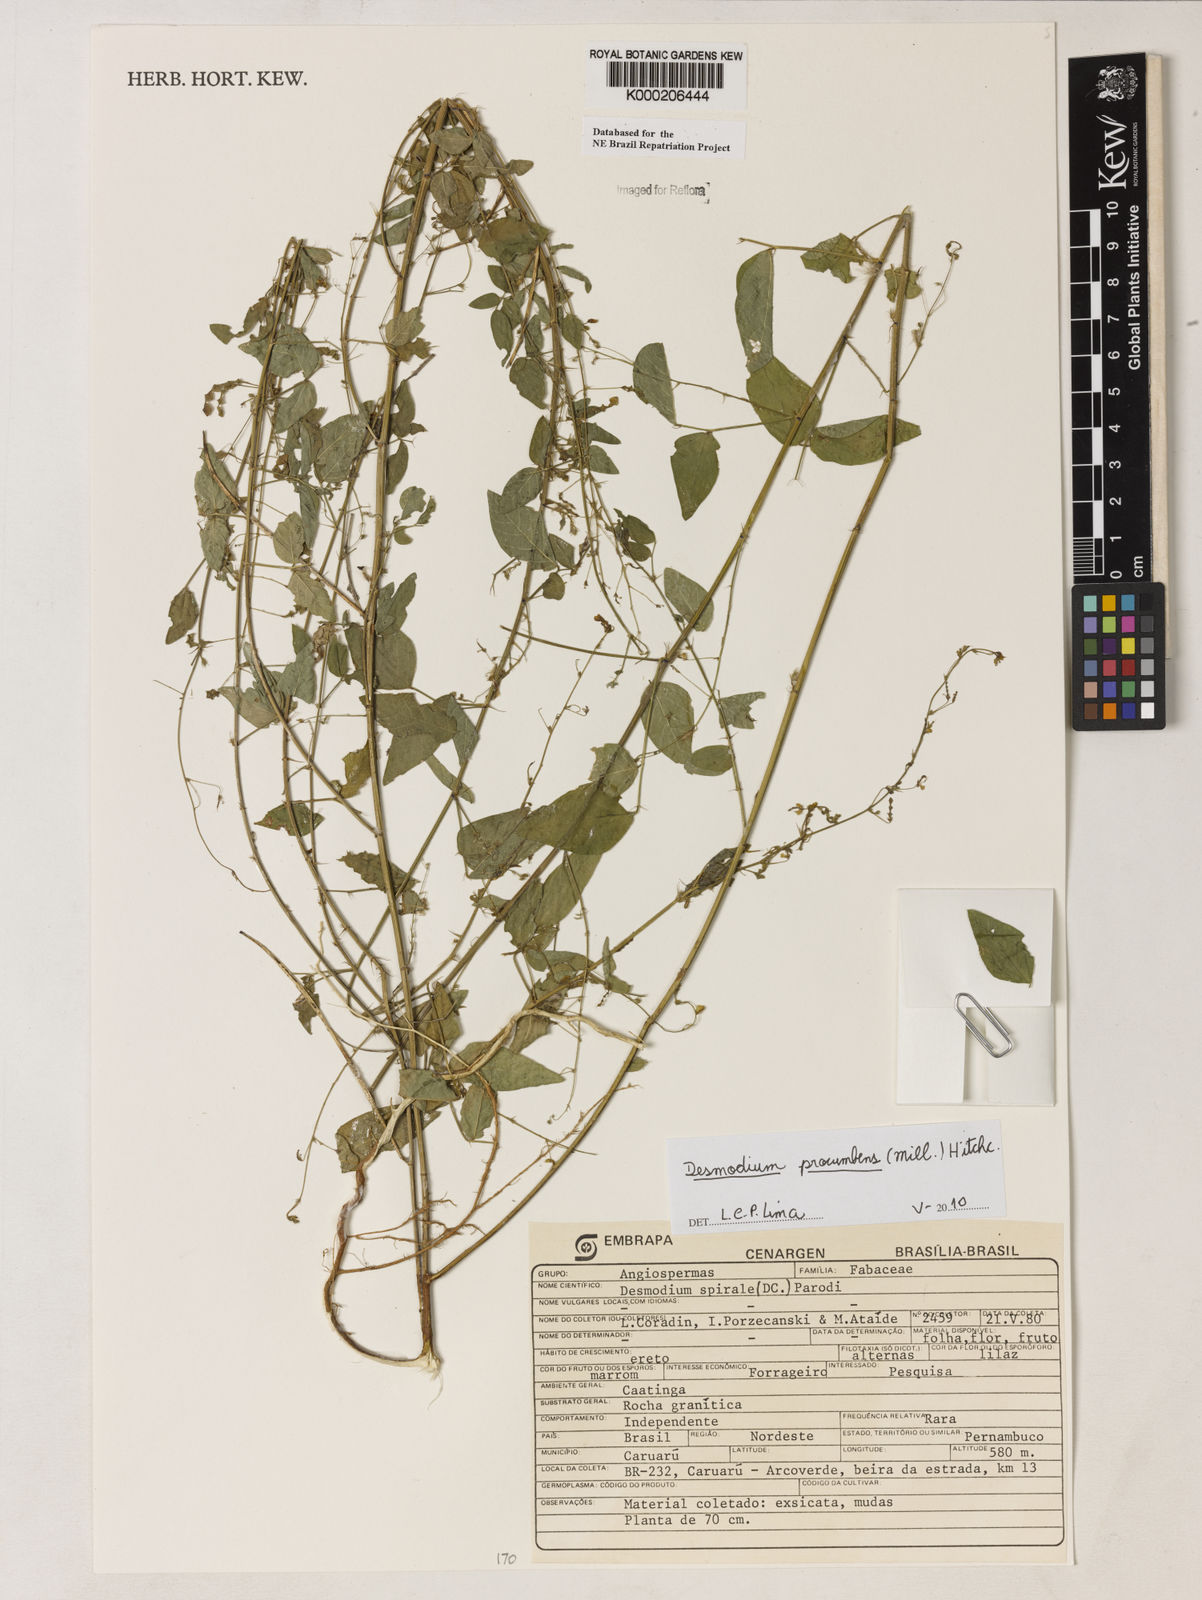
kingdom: Plantae
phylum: Tracheophyta
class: Magnoliopsida
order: Fabales
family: Fabaceae
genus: Desmodium
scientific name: Desmodium
